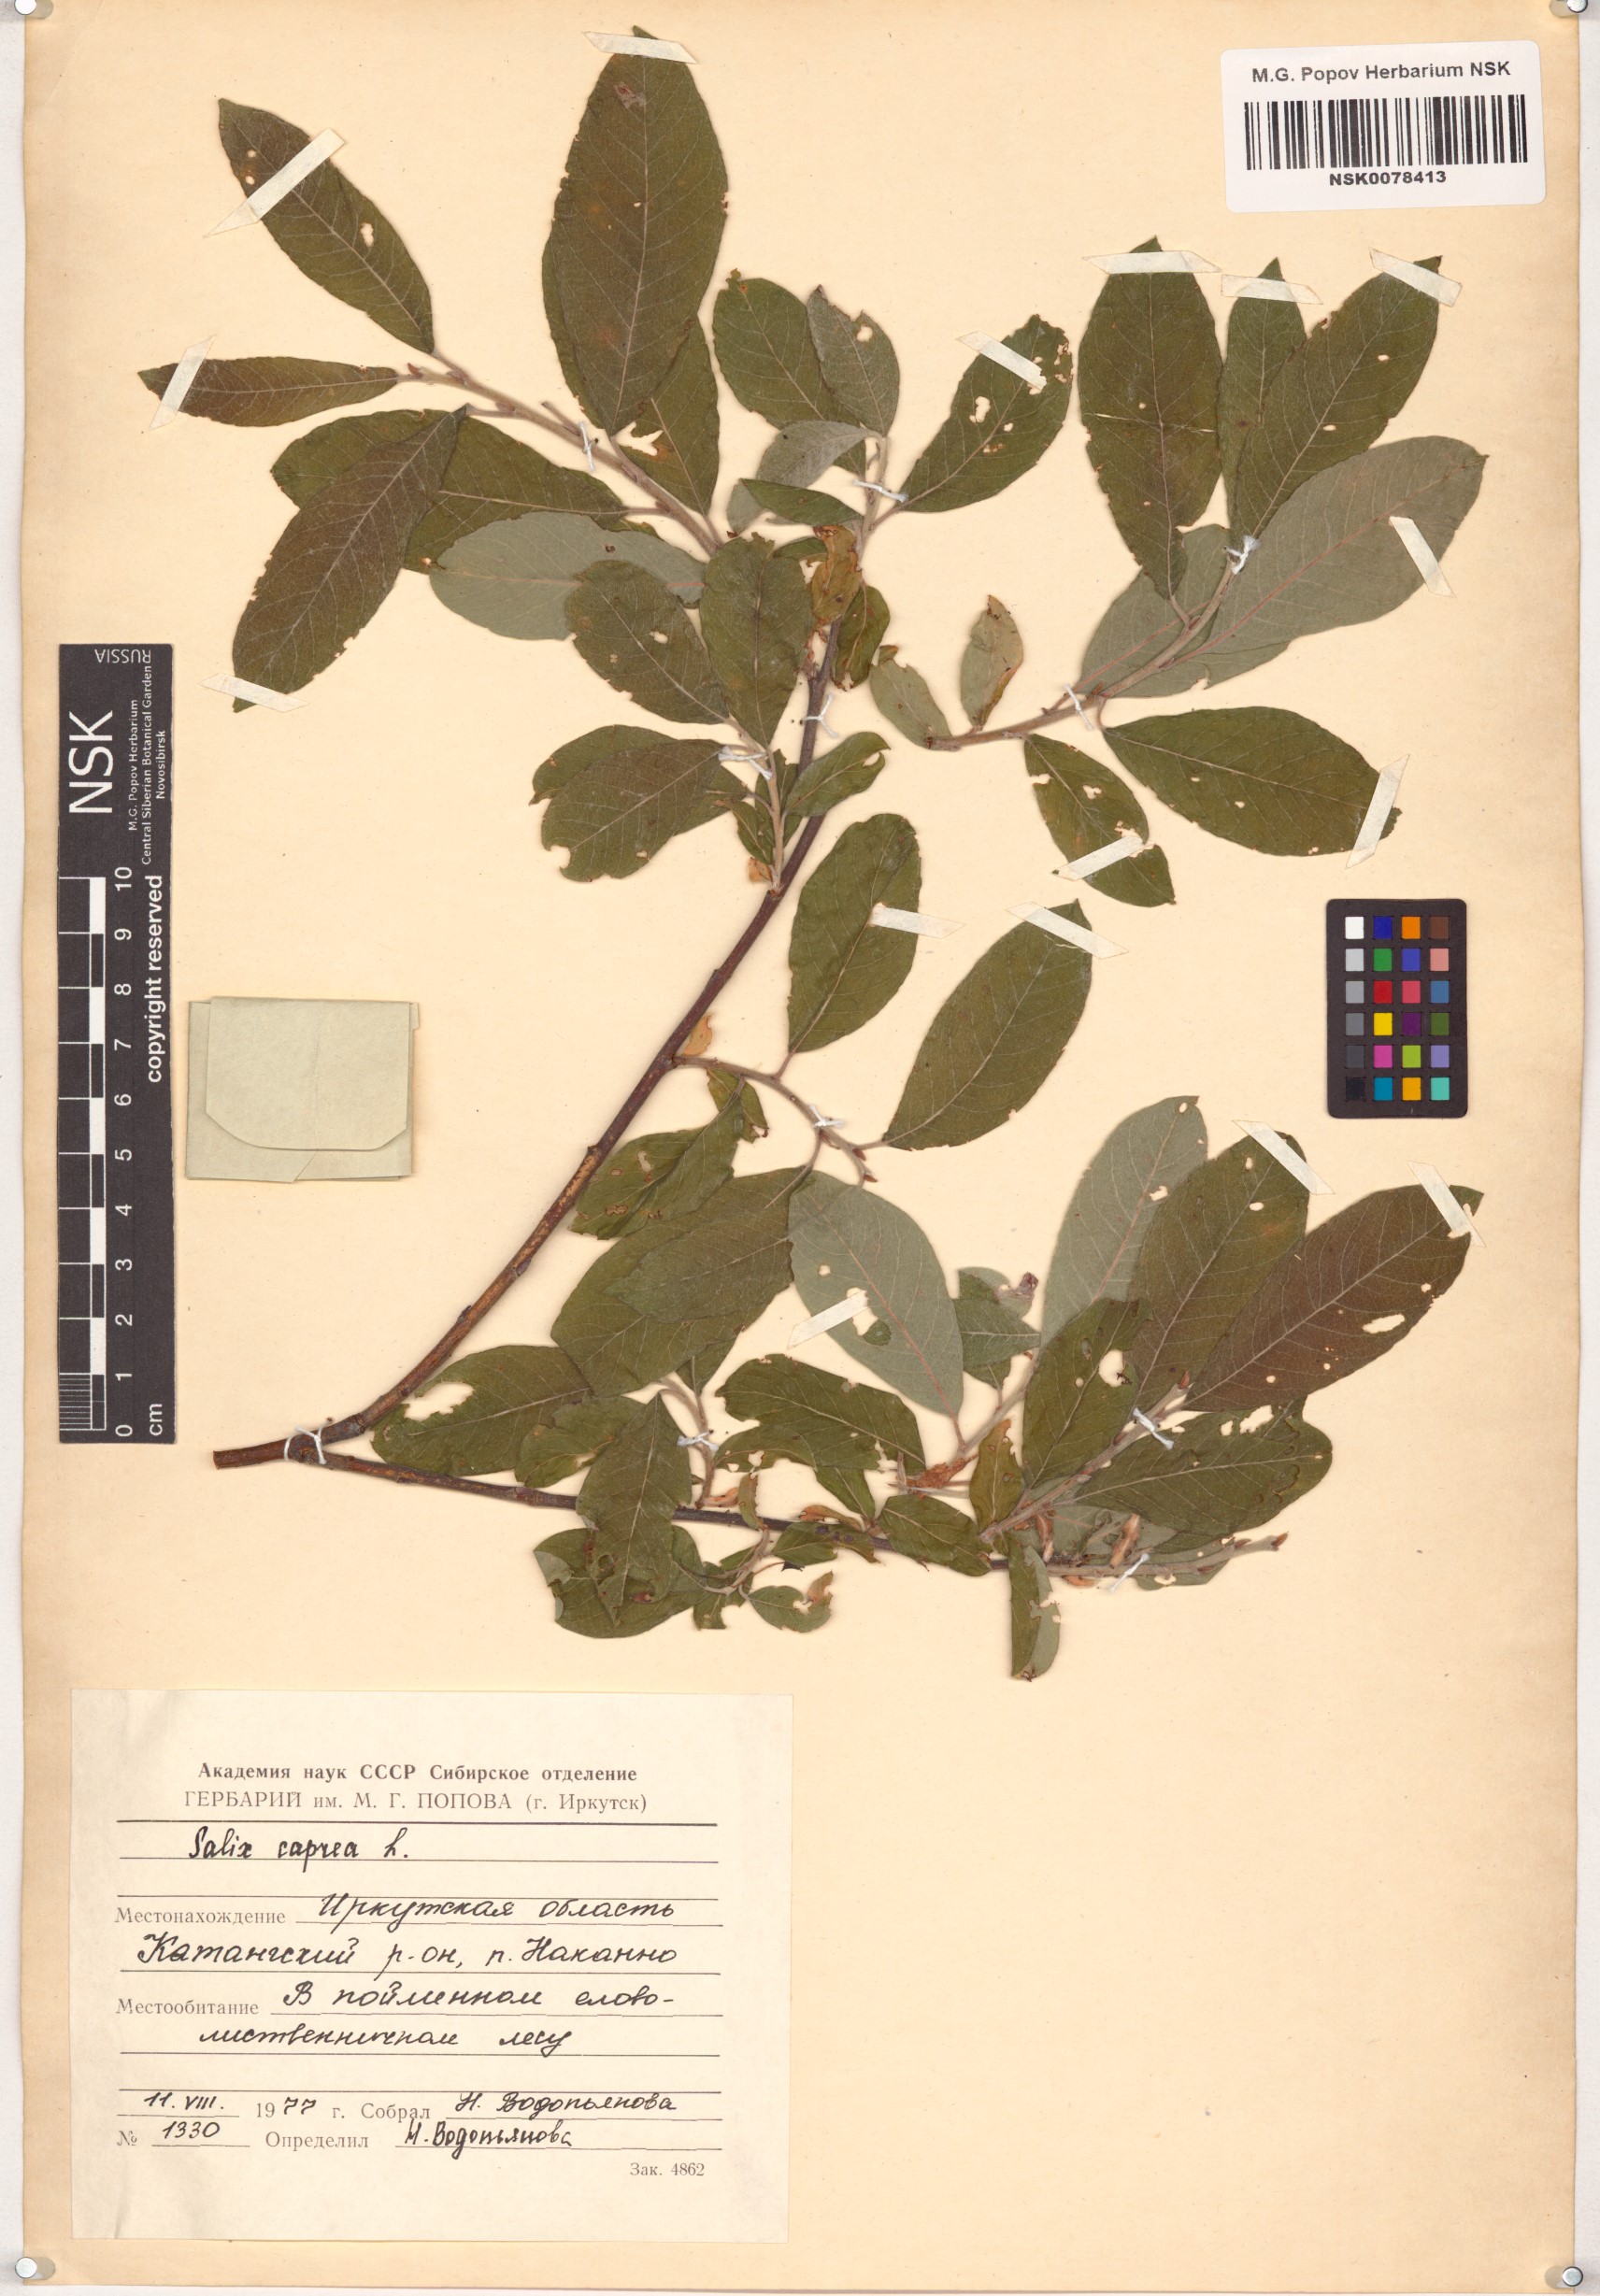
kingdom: Plantae
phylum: Tracheophyta
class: Magnoliopsida
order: Malpighiales
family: Salicaceae
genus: Salix
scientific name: Salix caprea
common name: Goat willow
